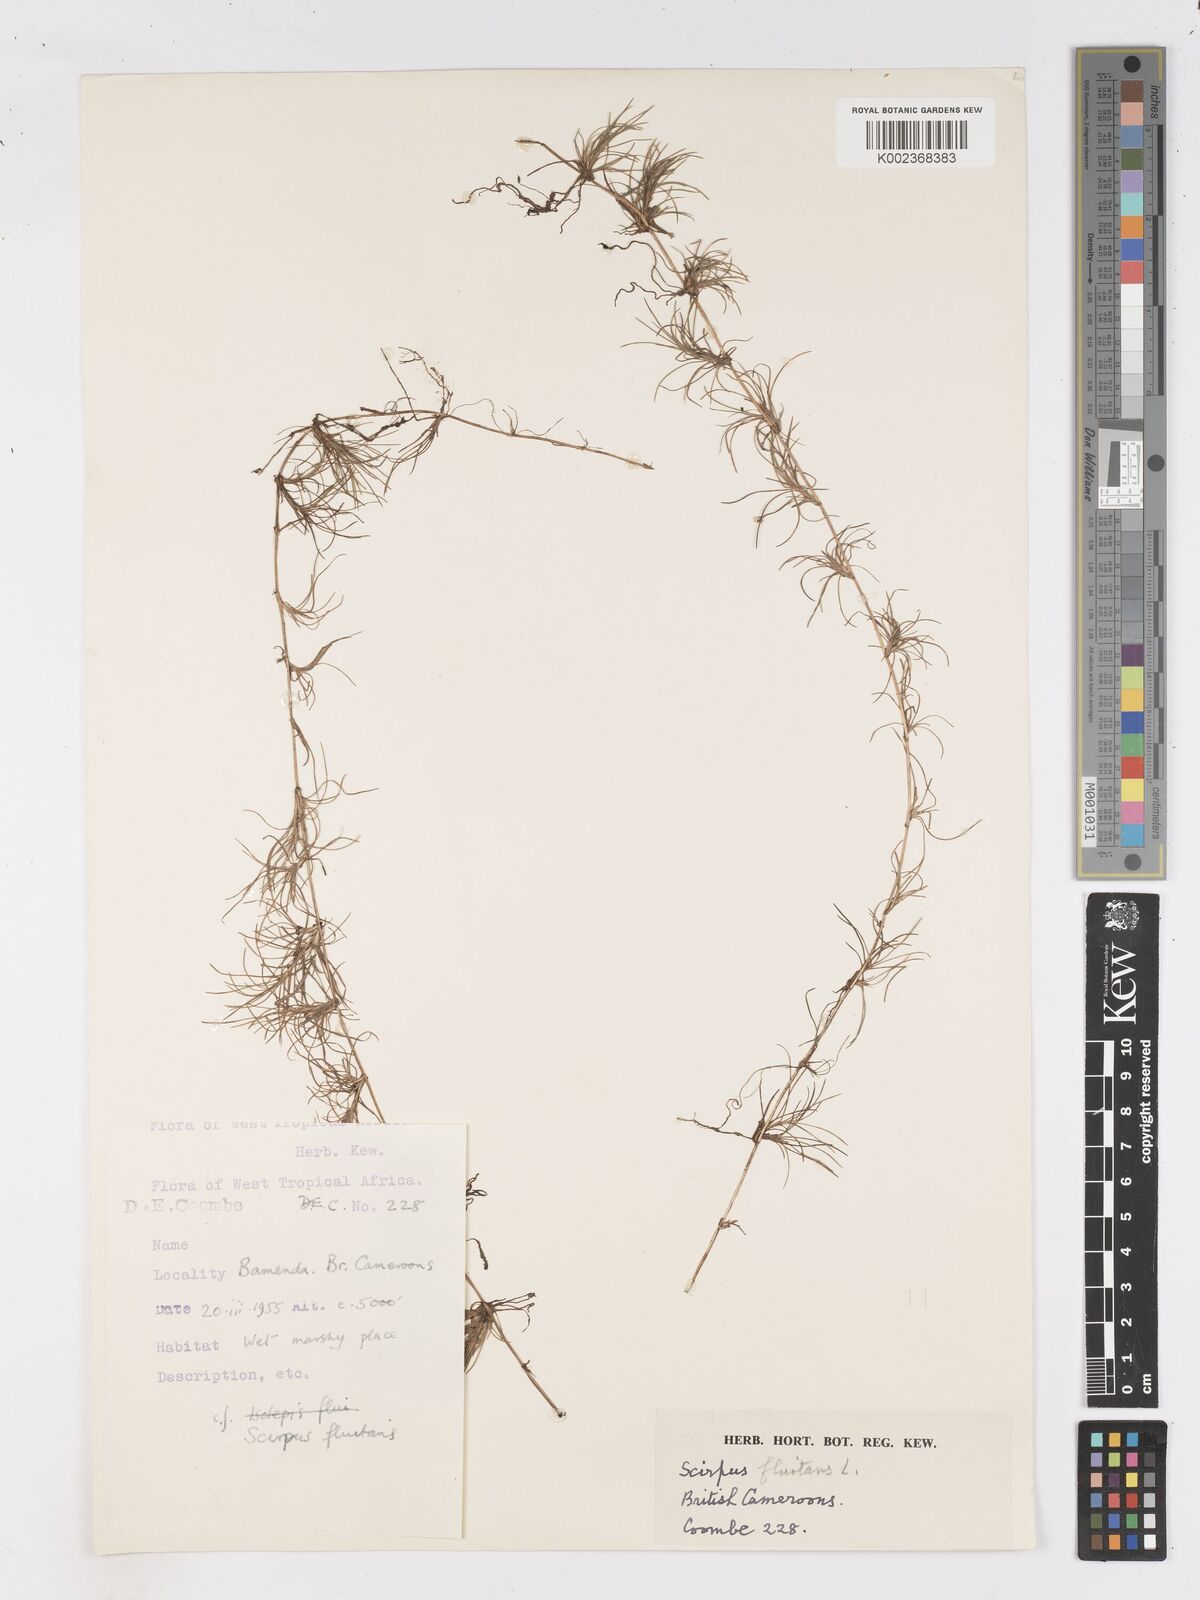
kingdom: Plantae
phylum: Tracheophyta
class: Liliopsida
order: Poales
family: Cyperaceae
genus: Isolepis
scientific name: Isolepis fluitans
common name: Floating club-rush
